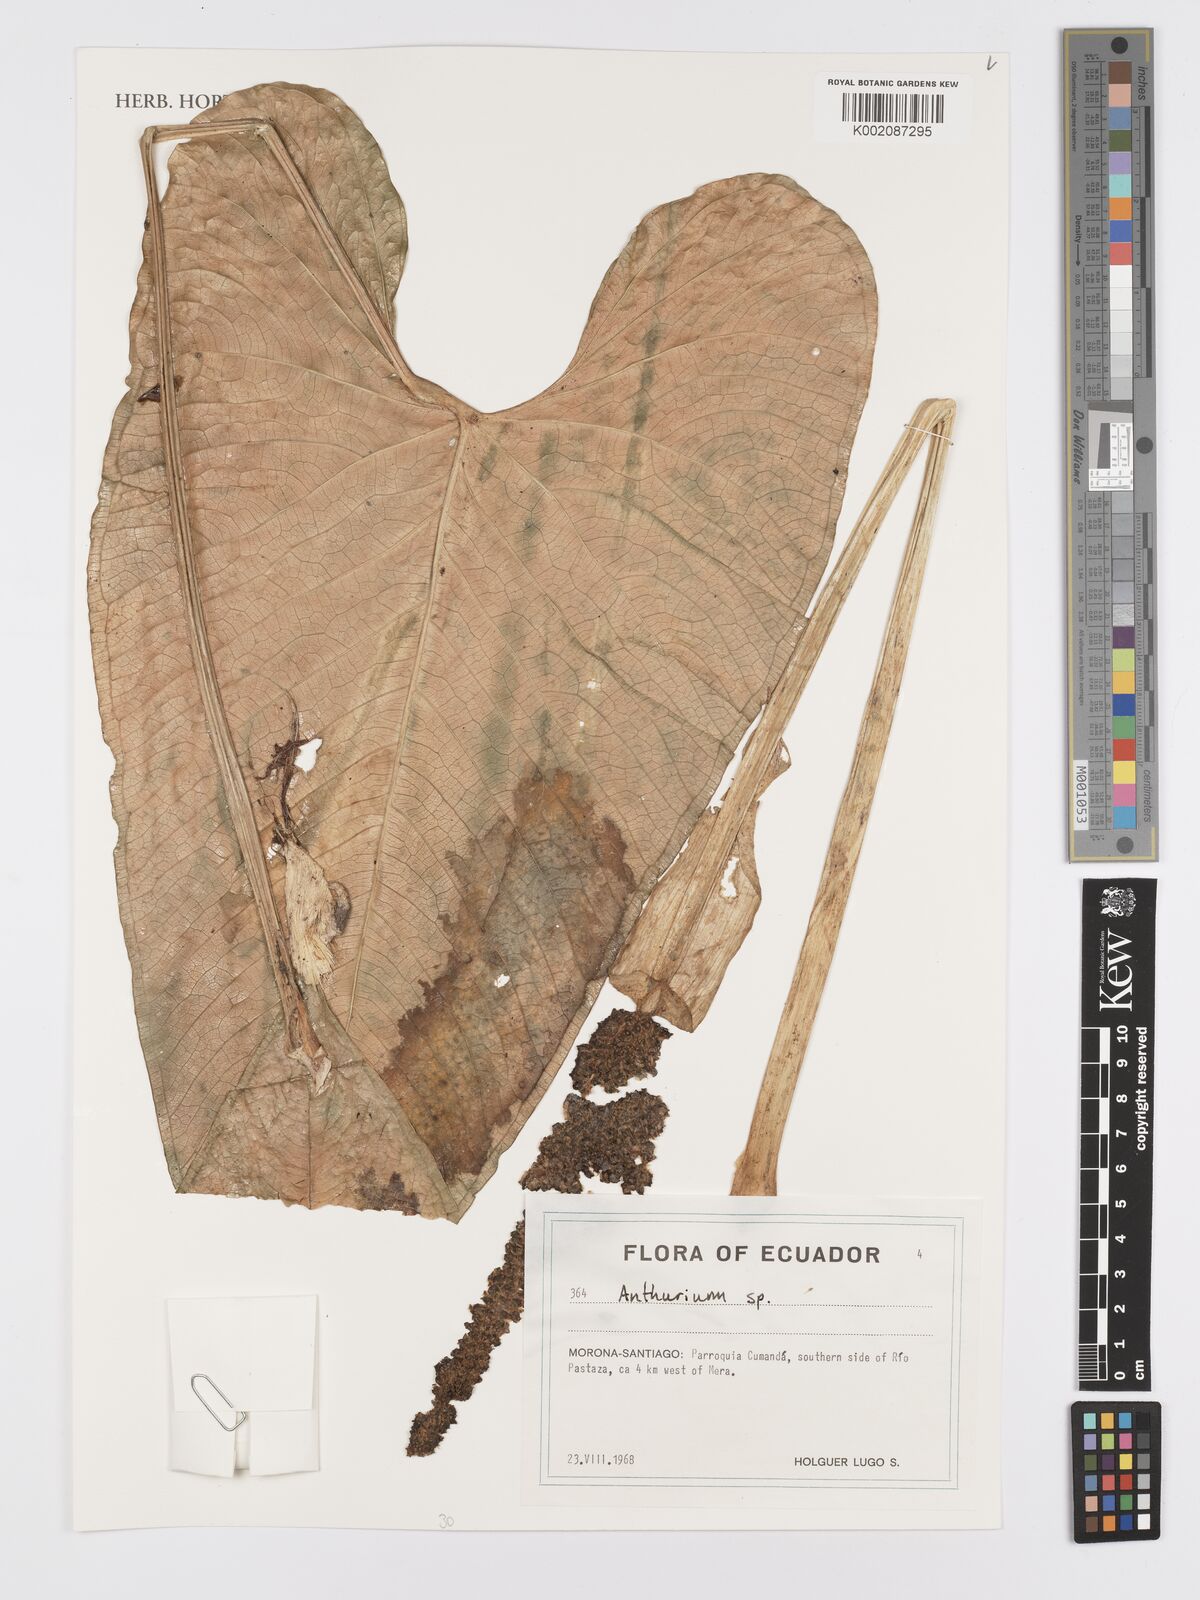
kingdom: Plantae
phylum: Tracheophyta
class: Liliopsida
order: Alismatales
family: Araceae
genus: Anthurium
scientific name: Anthurium
